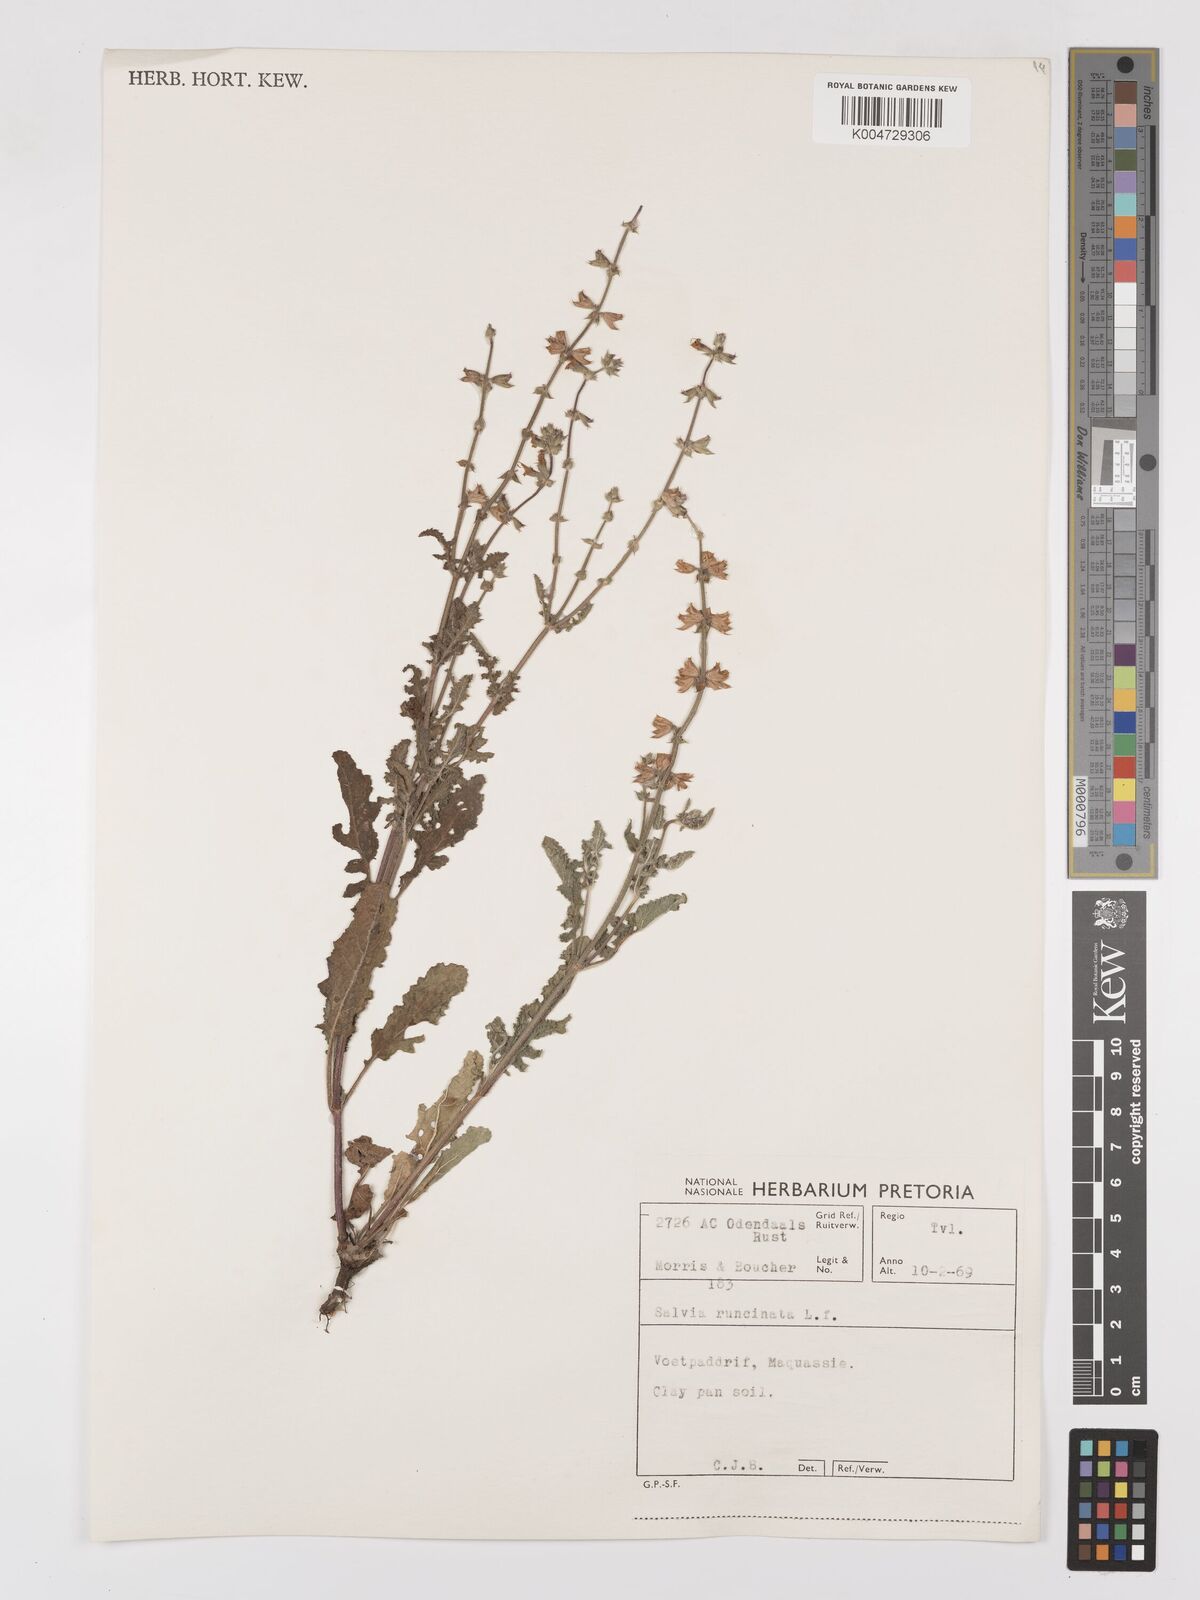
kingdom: Plantae
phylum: Tracheophyta
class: Magnoliopsida
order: Lamiales
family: Lamiaceae
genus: Salvia
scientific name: Salvia runcinata
